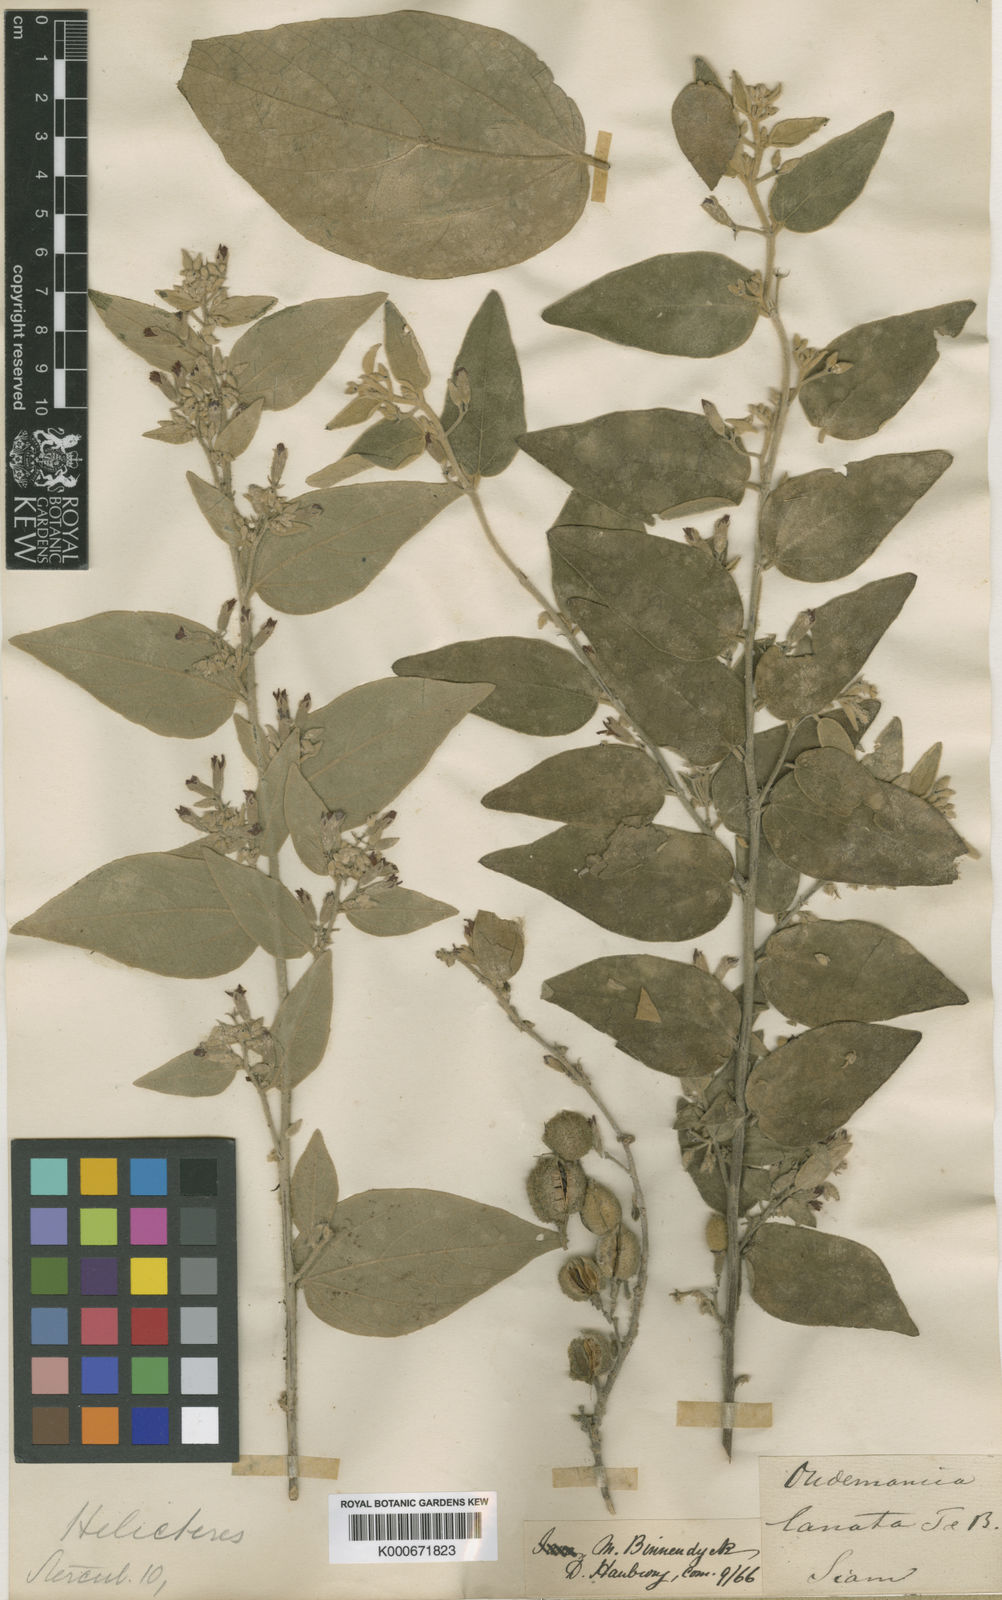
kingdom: Plantae
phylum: Tracheophyta
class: Magnoliopsida
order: Malvales
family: Malvaceae
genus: Helicteres
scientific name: Helicteres lanata
